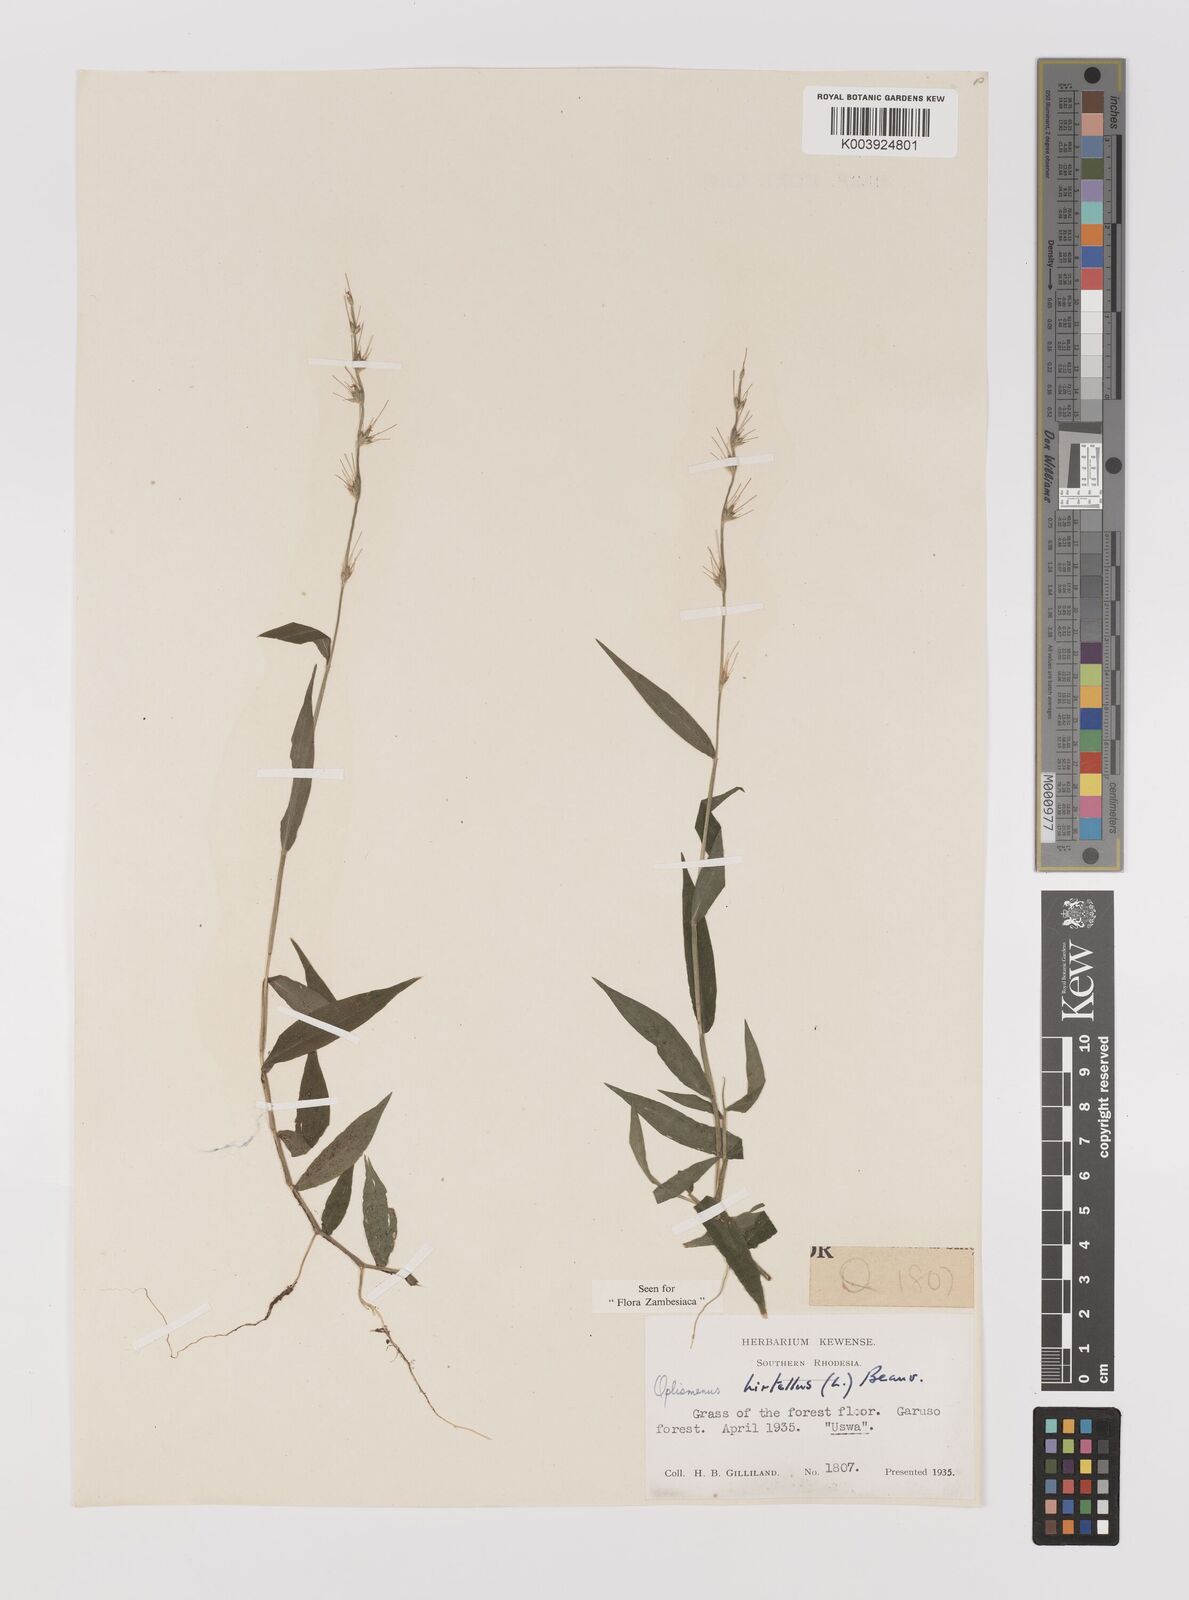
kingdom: Plantae
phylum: Tracheophyta
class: Liliopsida
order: Poales
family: Poaceae
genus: Oplismenus
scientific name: Oplismenus hirtellus
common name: Basketgrass
